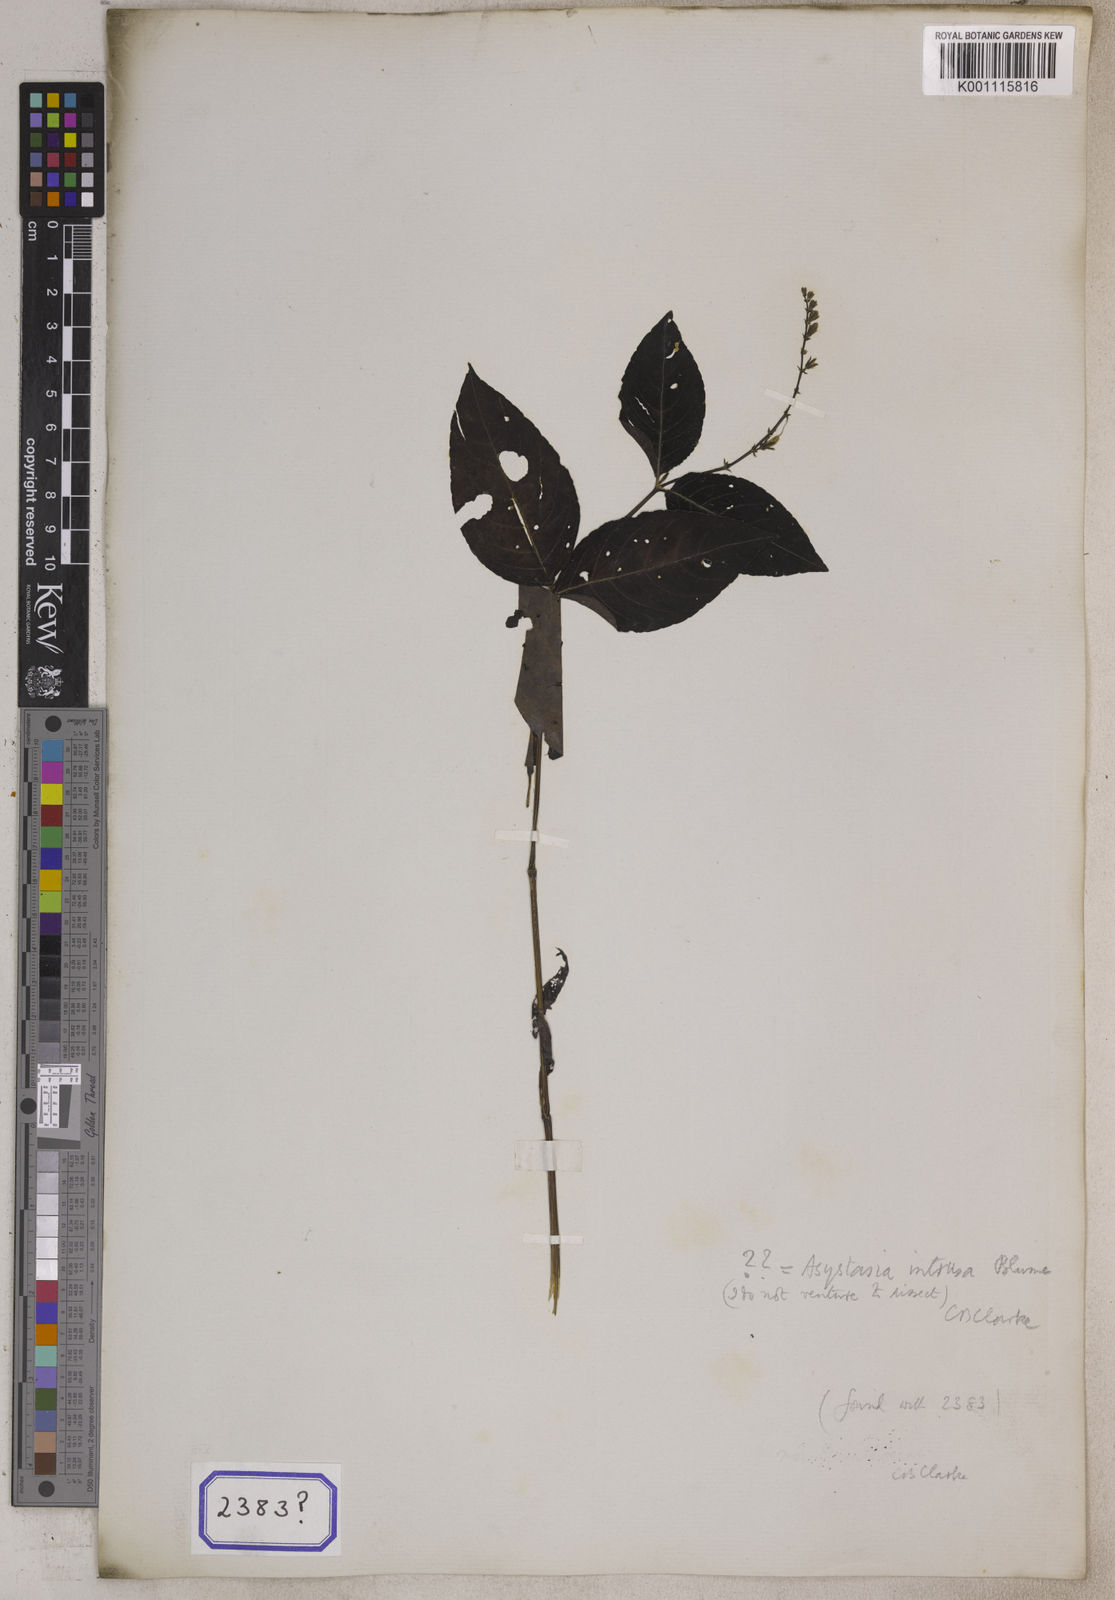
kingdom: Plantae
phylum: Tracheophyta
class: Magnoliopsida
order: Lamiales
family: Acanthaceae
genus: Ruellia
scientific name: Ruellia
